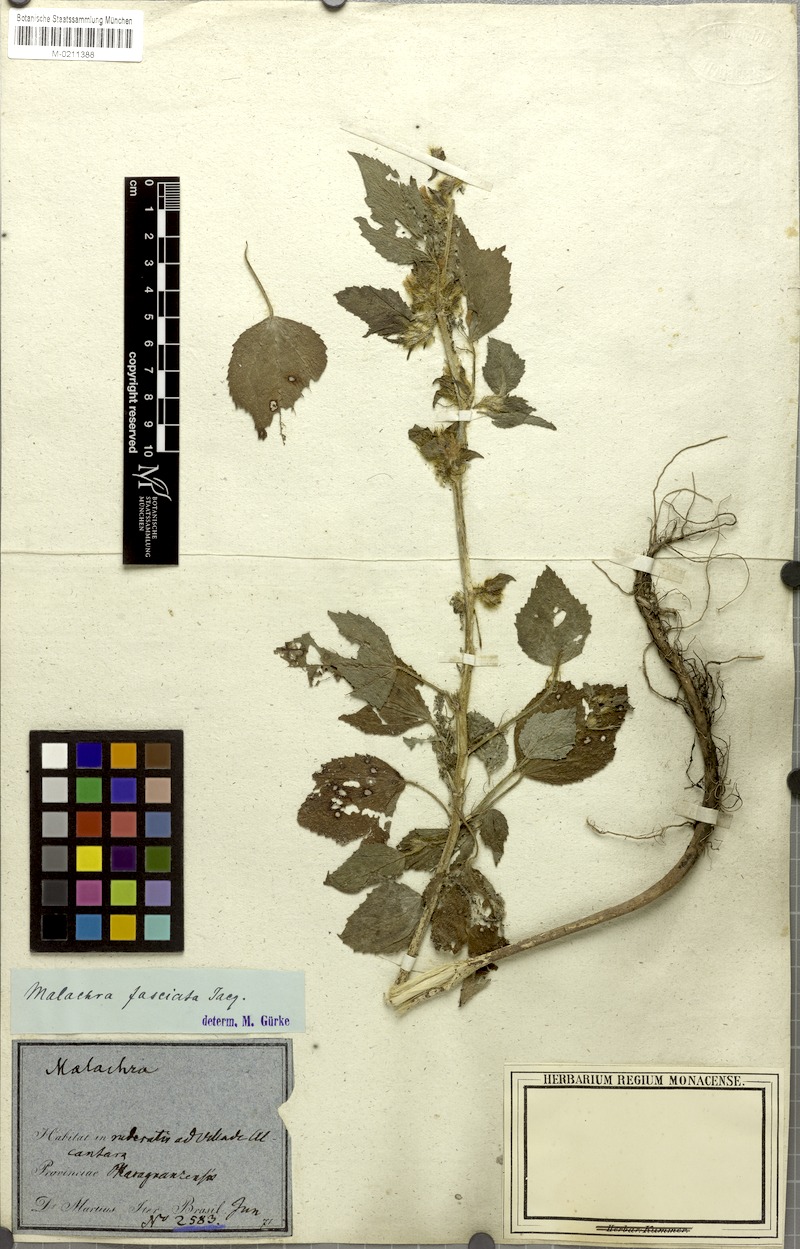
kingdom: Plantae
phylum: Tracheophyta
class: Magnoliopsida
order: Malvales
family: Malvaceae
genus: Malachra
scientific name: Malachra fasciata
